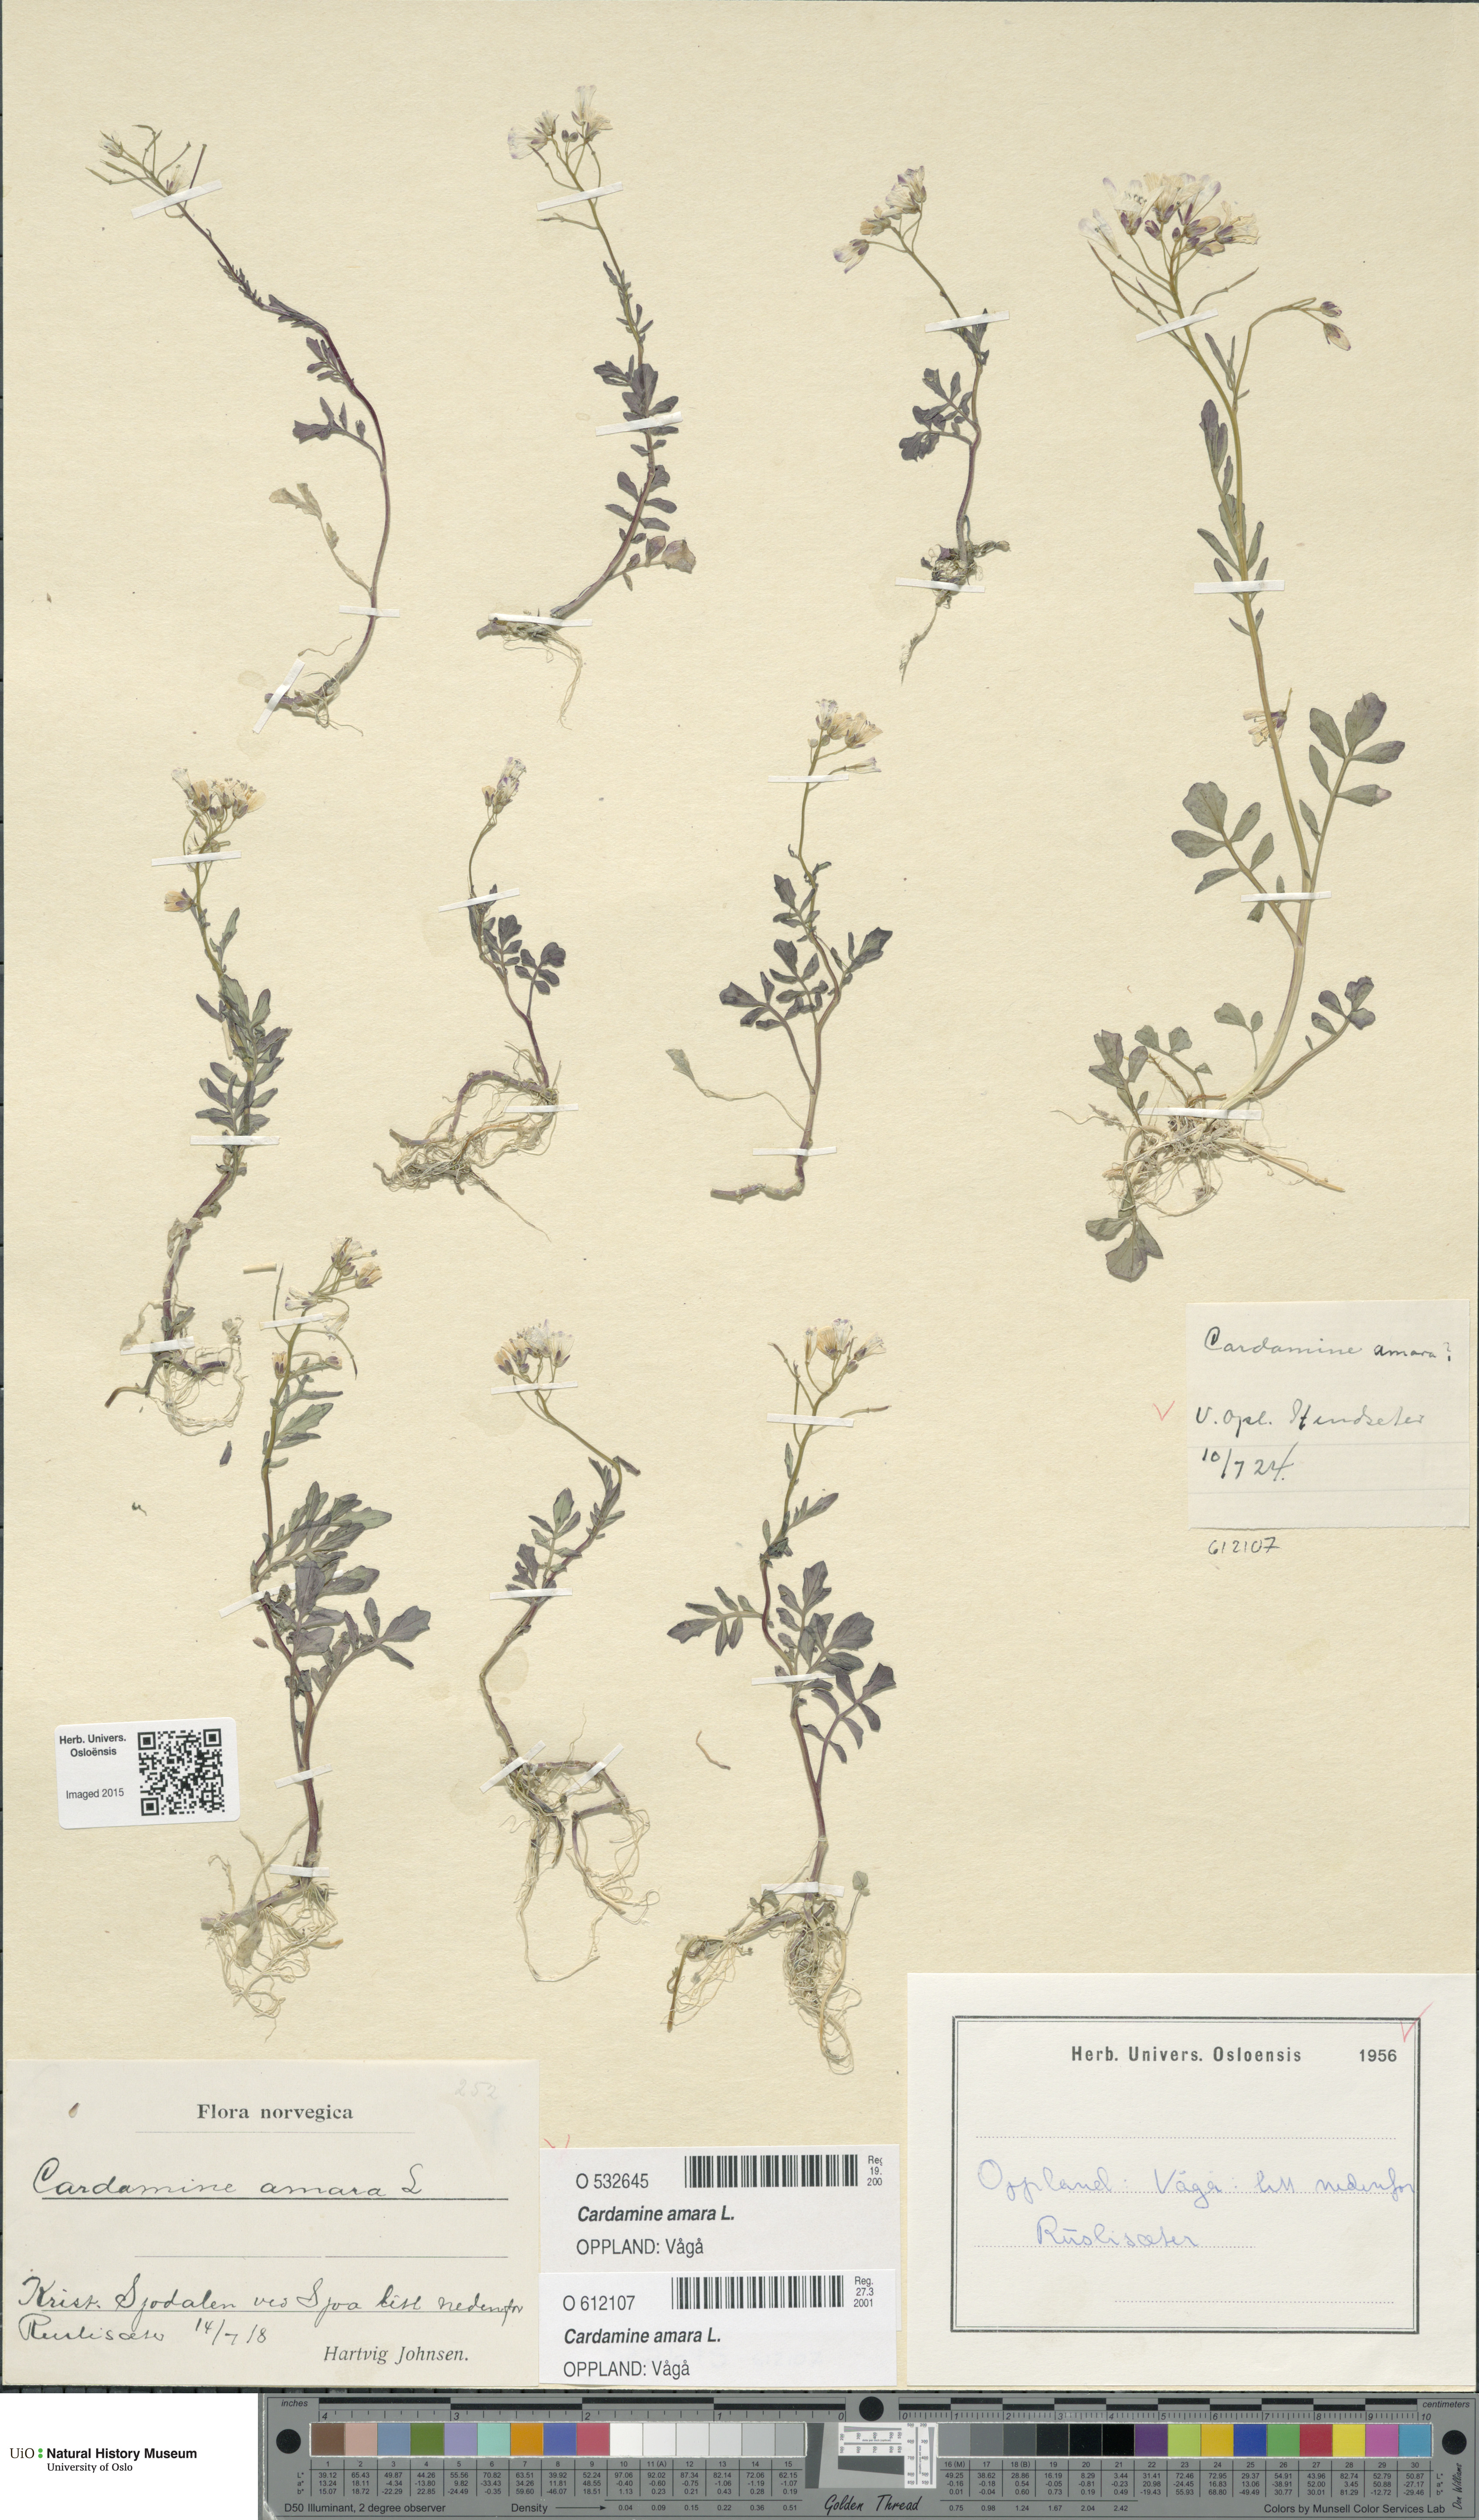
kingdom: Plantae
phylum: Tracheophyta
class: Magnoliopsida
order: Brassicales
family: Brassicaceae
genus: Cardamine
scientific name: Cardamine amara
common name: Large bitter-cress
